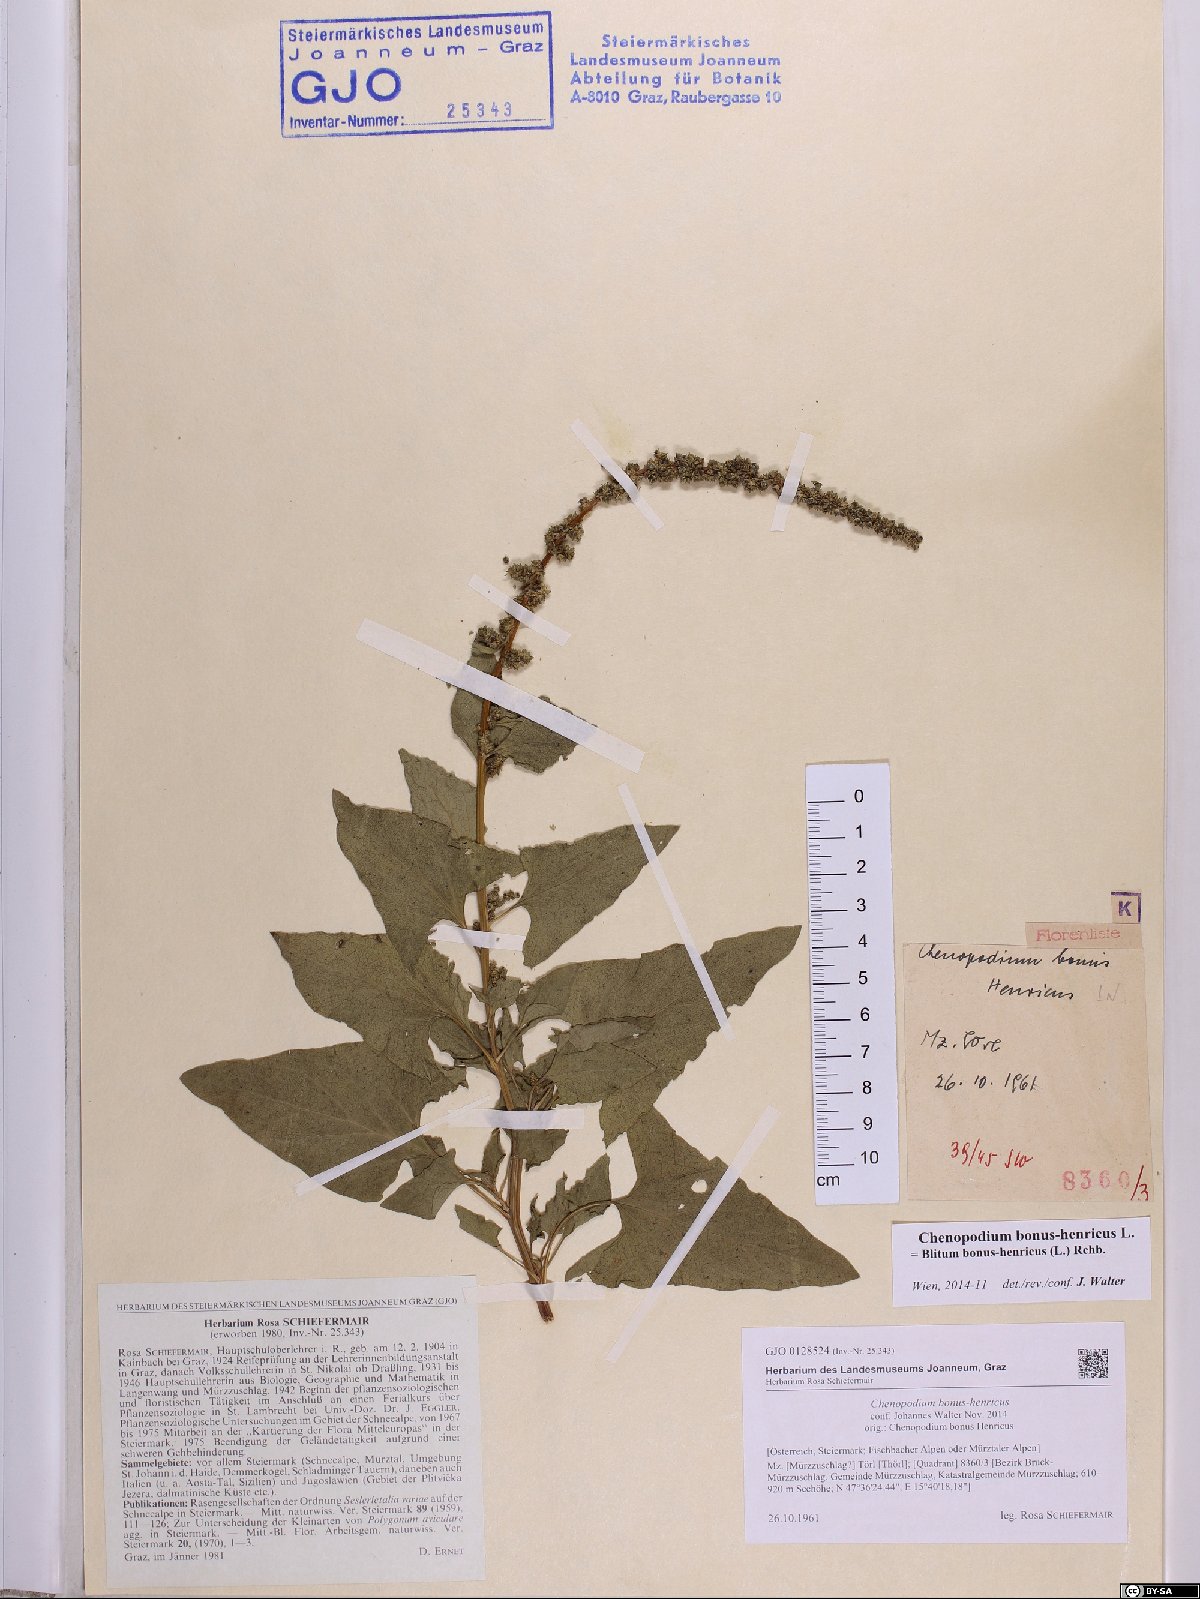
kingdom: Plantae
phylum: Tracheophyta
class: Magnoliopsida
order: Caryophyllales
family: Amaranthaceae
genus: Blitum
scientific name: Blitum bonus-henricus
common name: Good king henry
